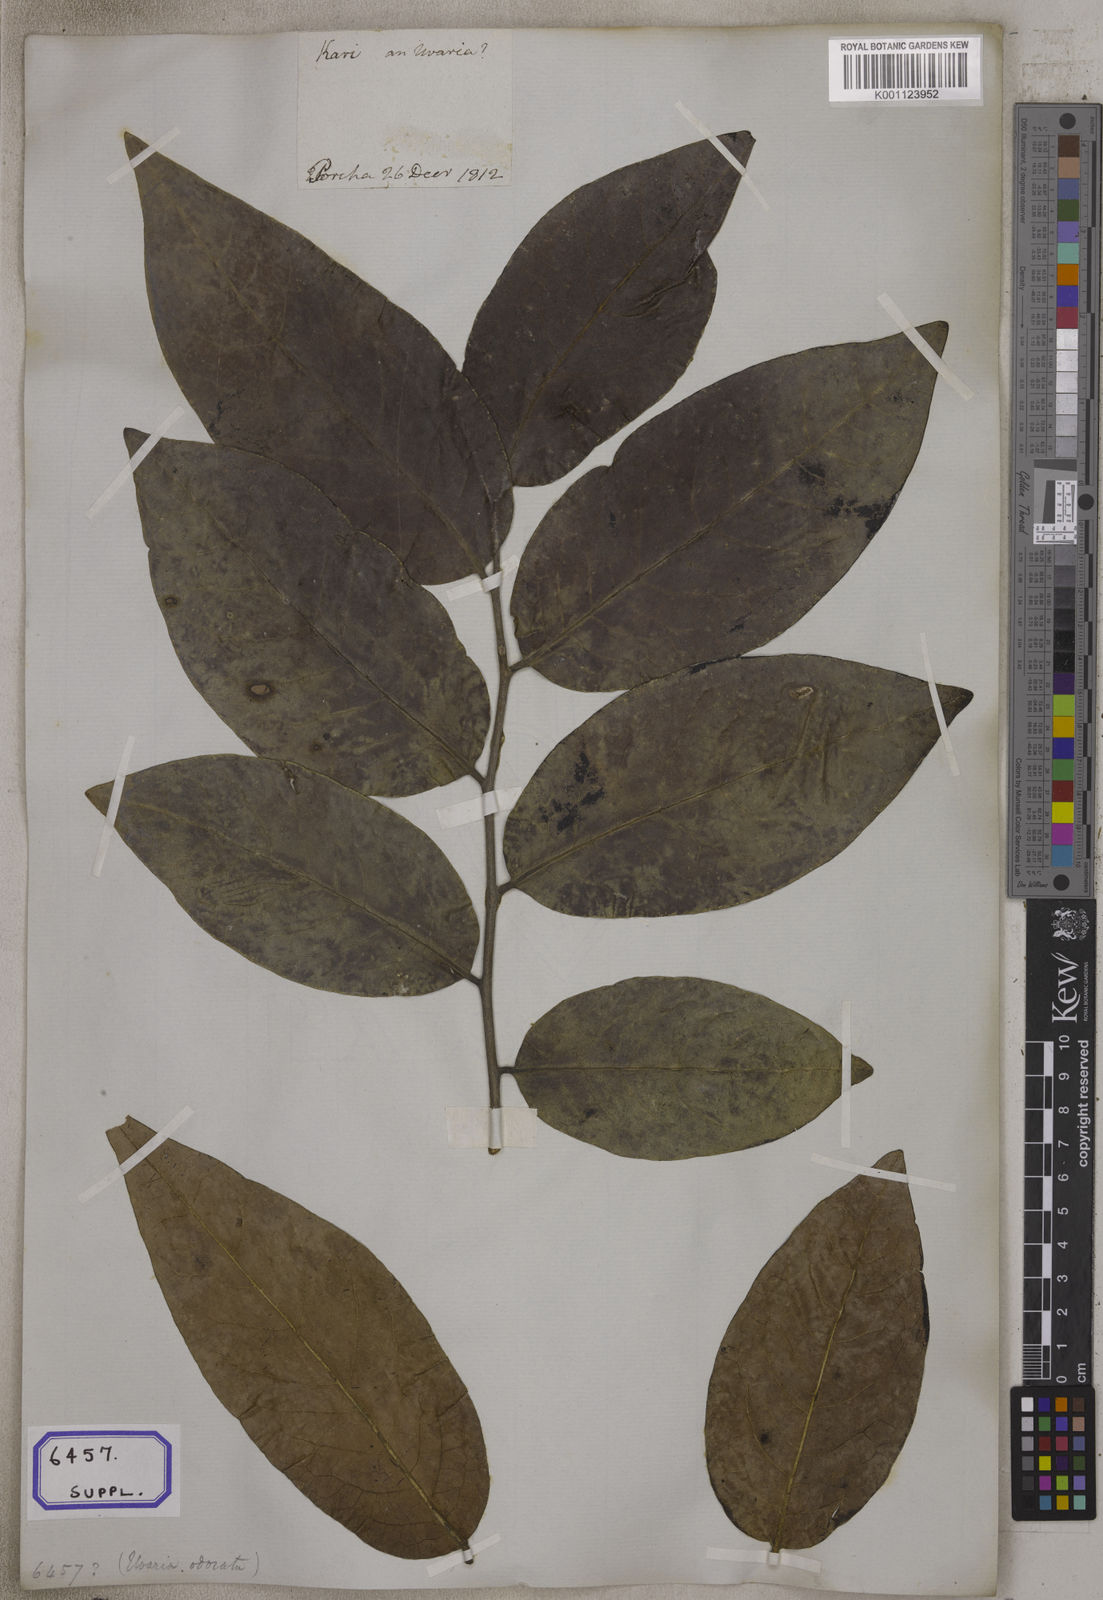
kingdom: Plantae
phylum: Tracheophyta
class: Magnoliopsida
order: Magnoliales
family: Annonaceae
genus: Uvaria
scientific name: Uvaria
